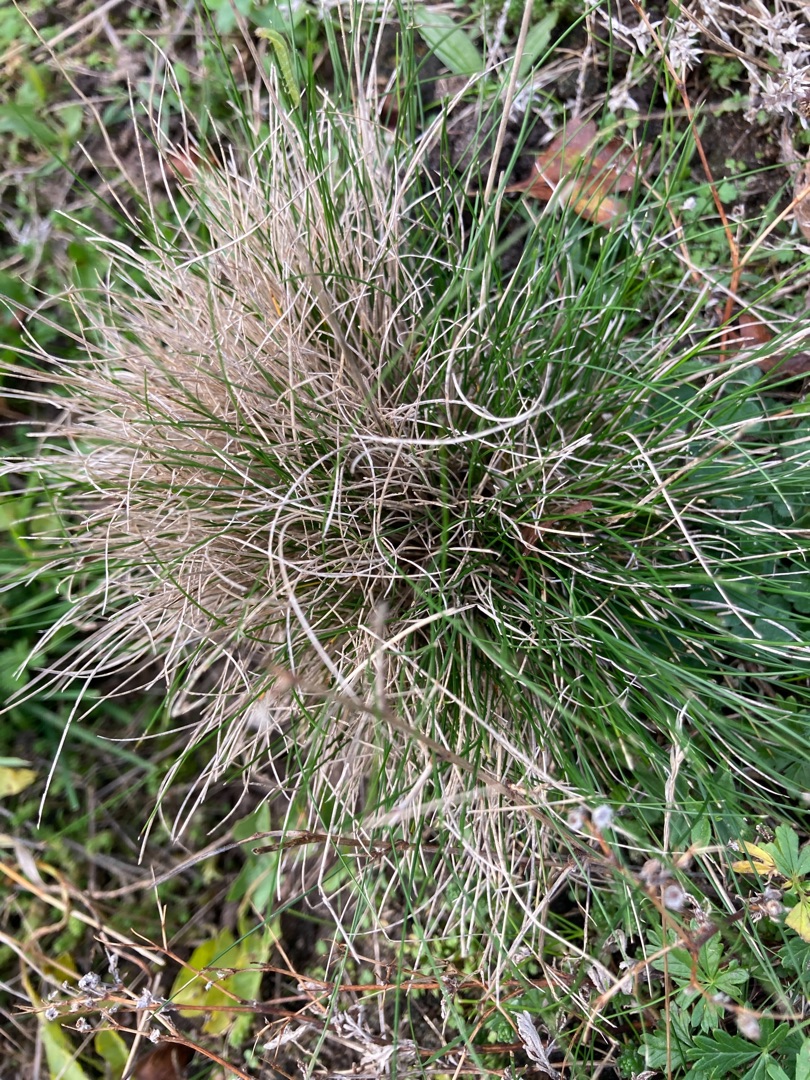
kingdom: Plantae
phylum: Tracheophyta
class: Liliopsida
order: Poales
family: Poaceae
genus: Festuca
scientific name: Festuca ovina
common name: Fåre-svingel
